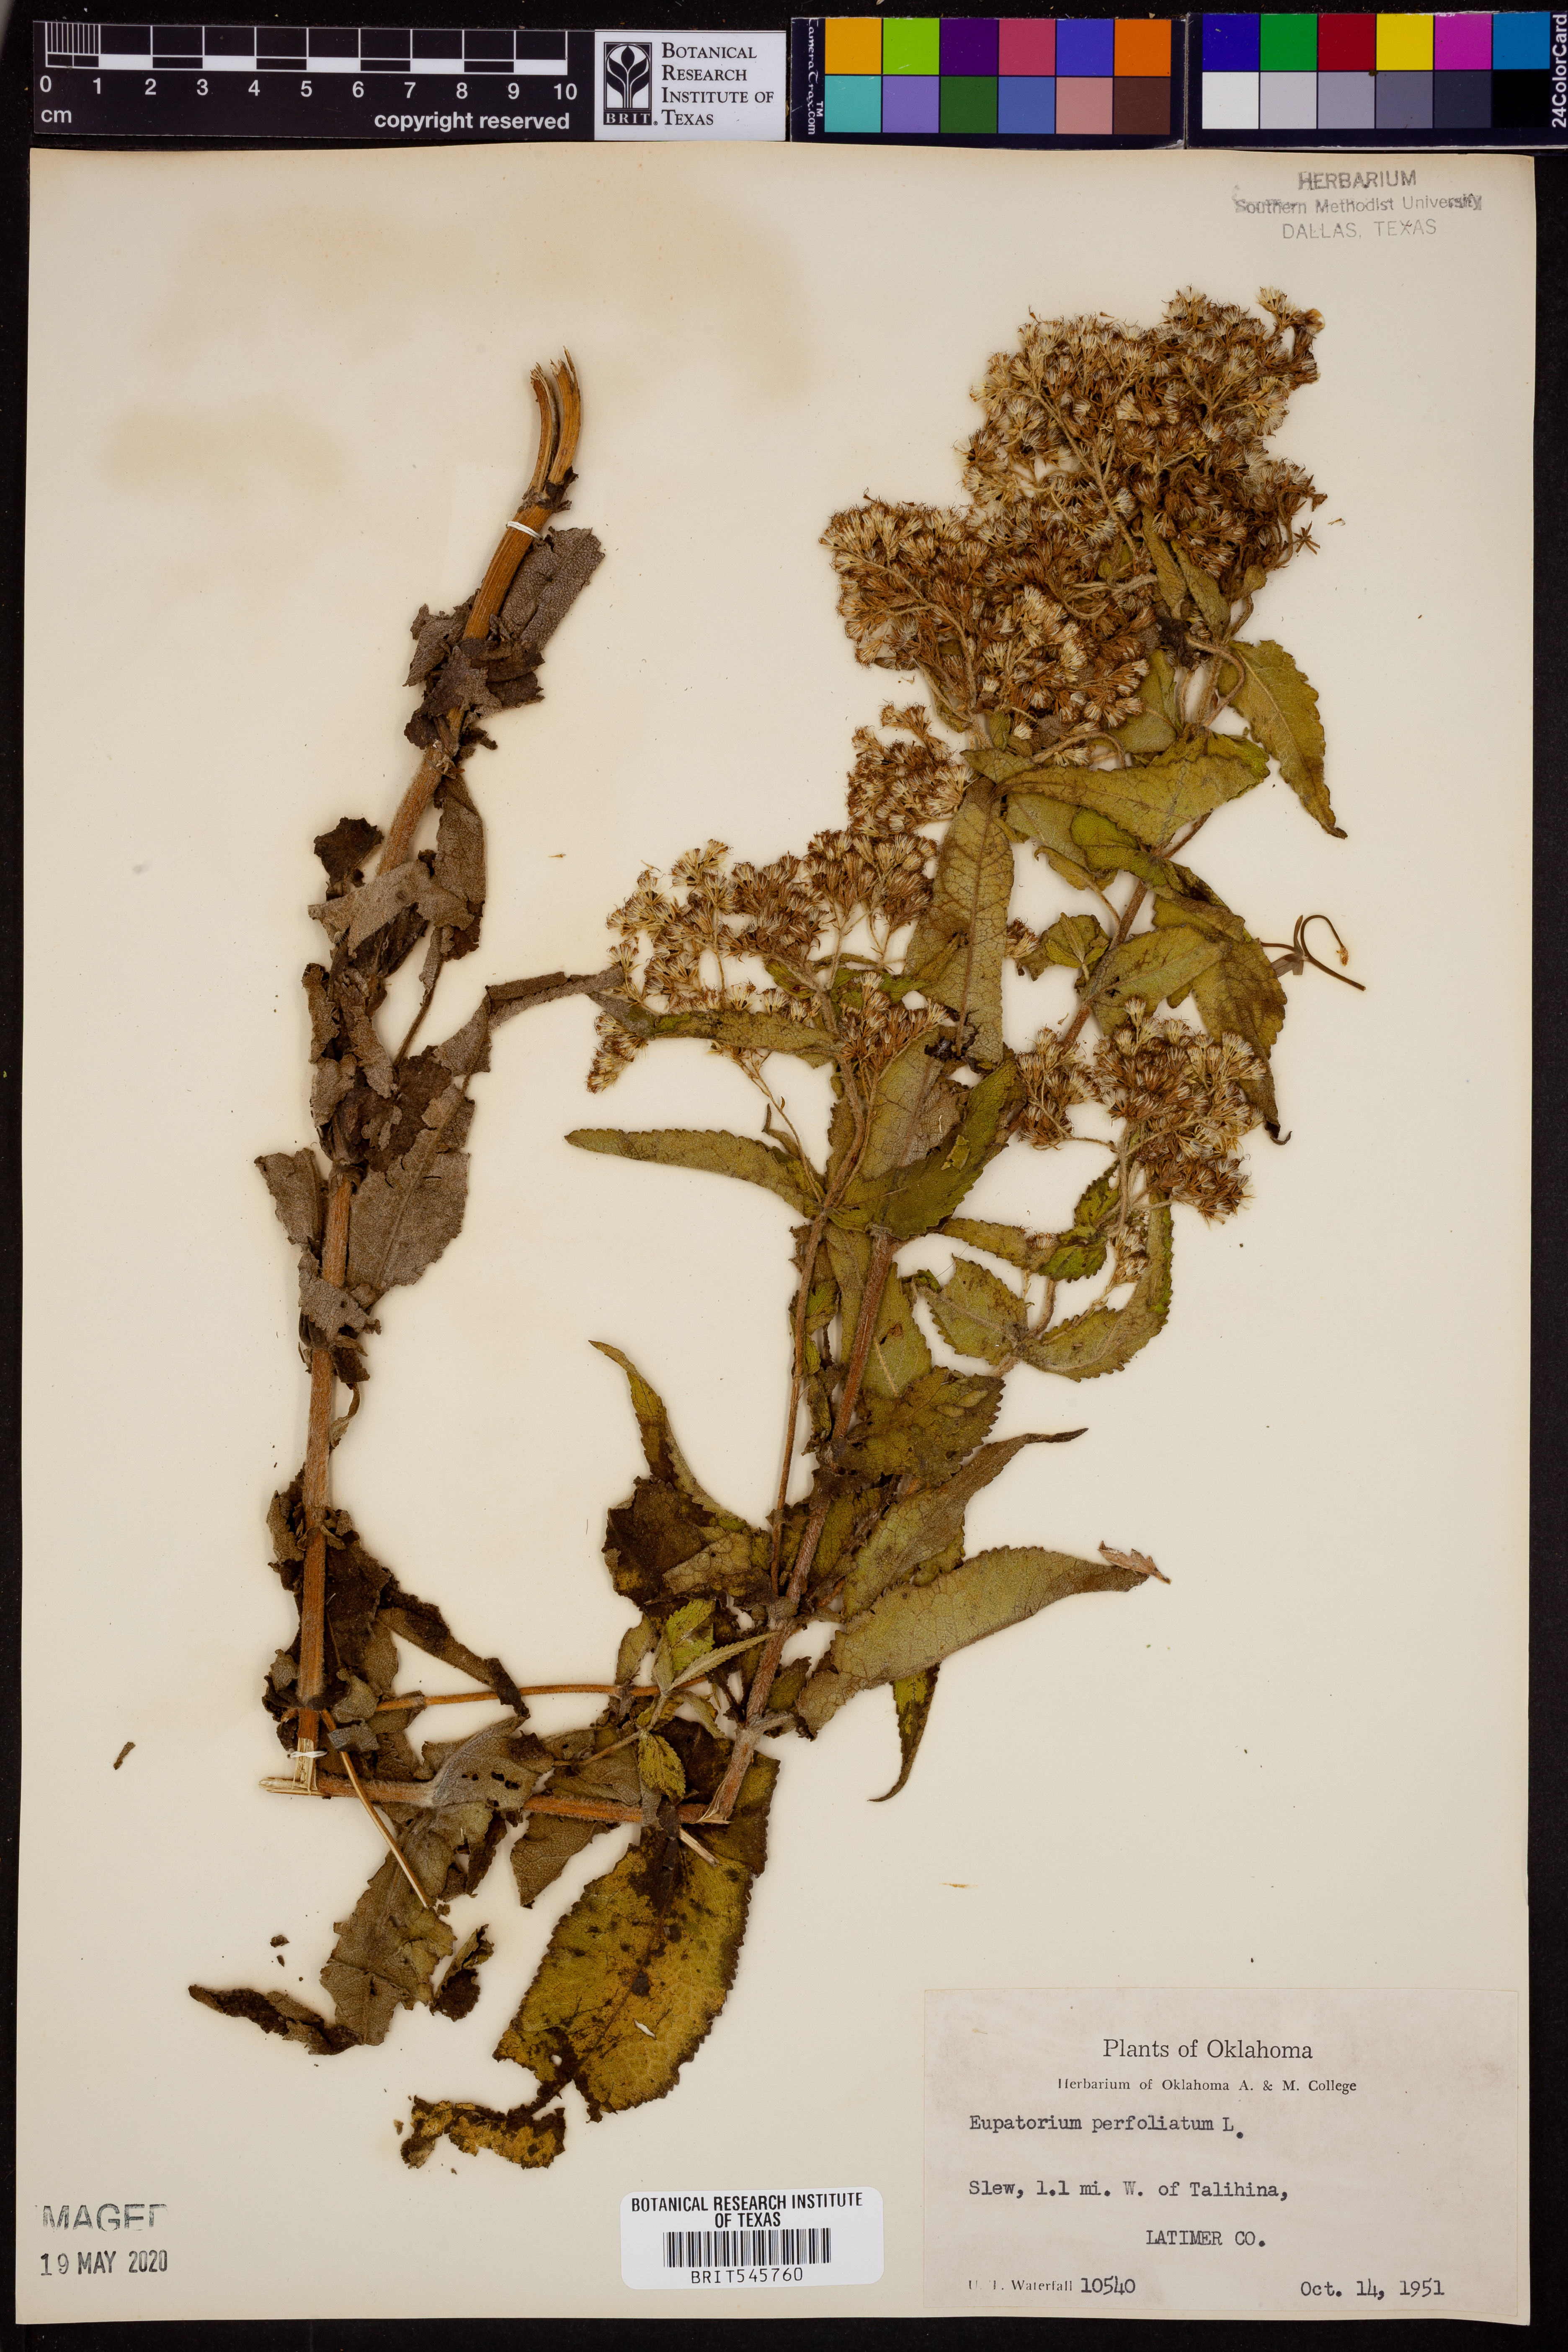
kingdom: Plantae
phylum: Tracheophyta
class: Magnoliopsida
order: Asterales
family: Asteraceae
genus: Eupatorium
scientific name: Eupatorium perfoliatum
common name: Boneset
